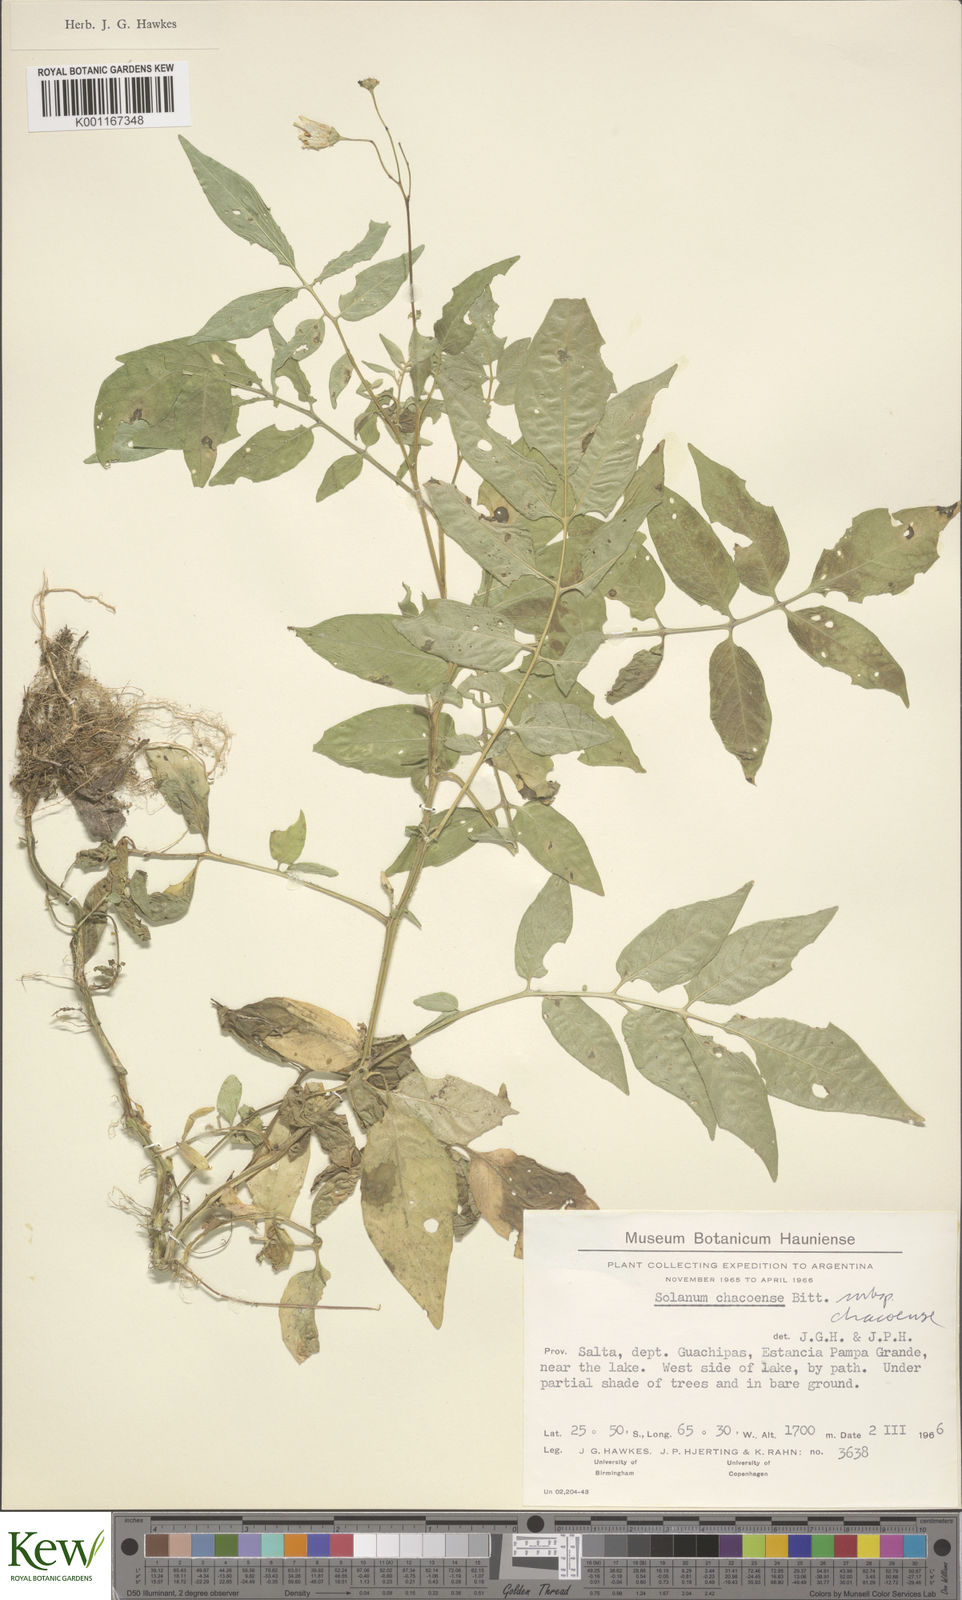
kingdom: Plantae
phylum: Tracheophyta
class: Magnoliopsida
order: Solanales
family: Solanaceae
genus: Solanum
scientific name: Solanum chacoense
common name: Chaco potato
